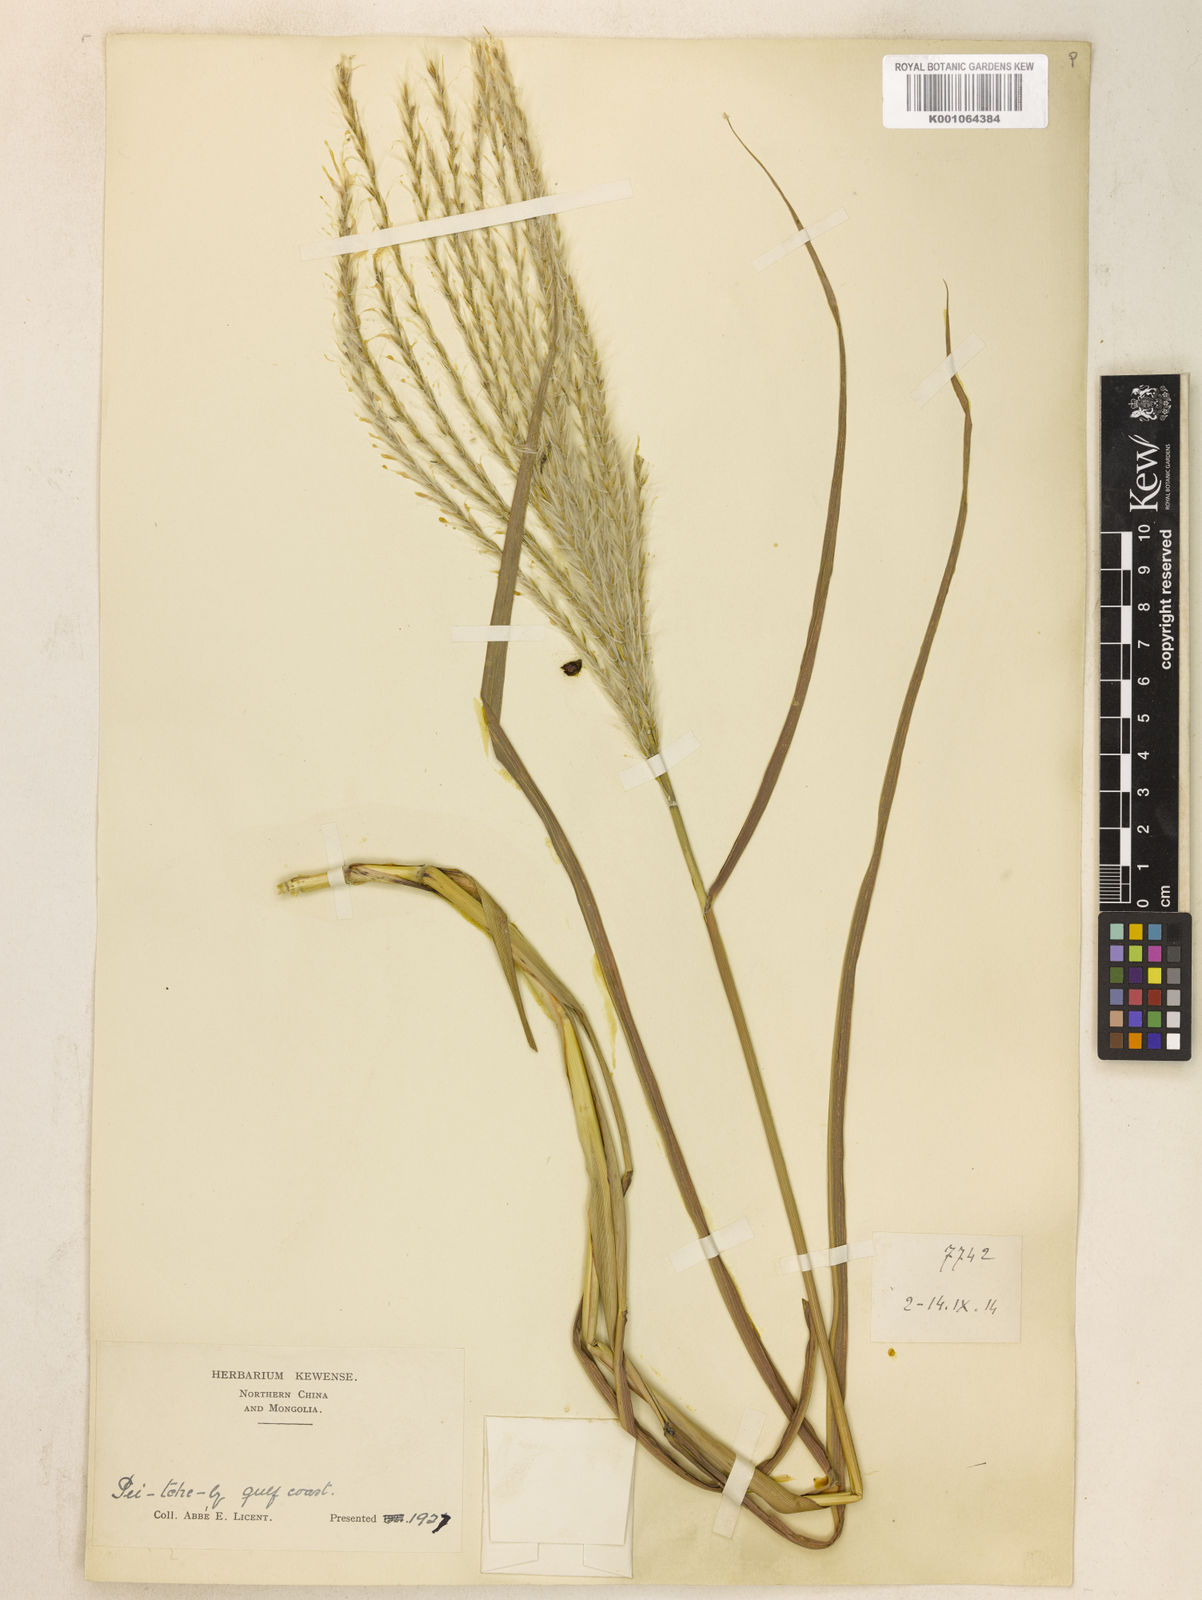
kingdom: Plantae
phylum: Tracheophyta
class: Liliopsida
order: Poales
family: Poaceae
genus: Miscanthus
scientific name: Miscanthus
